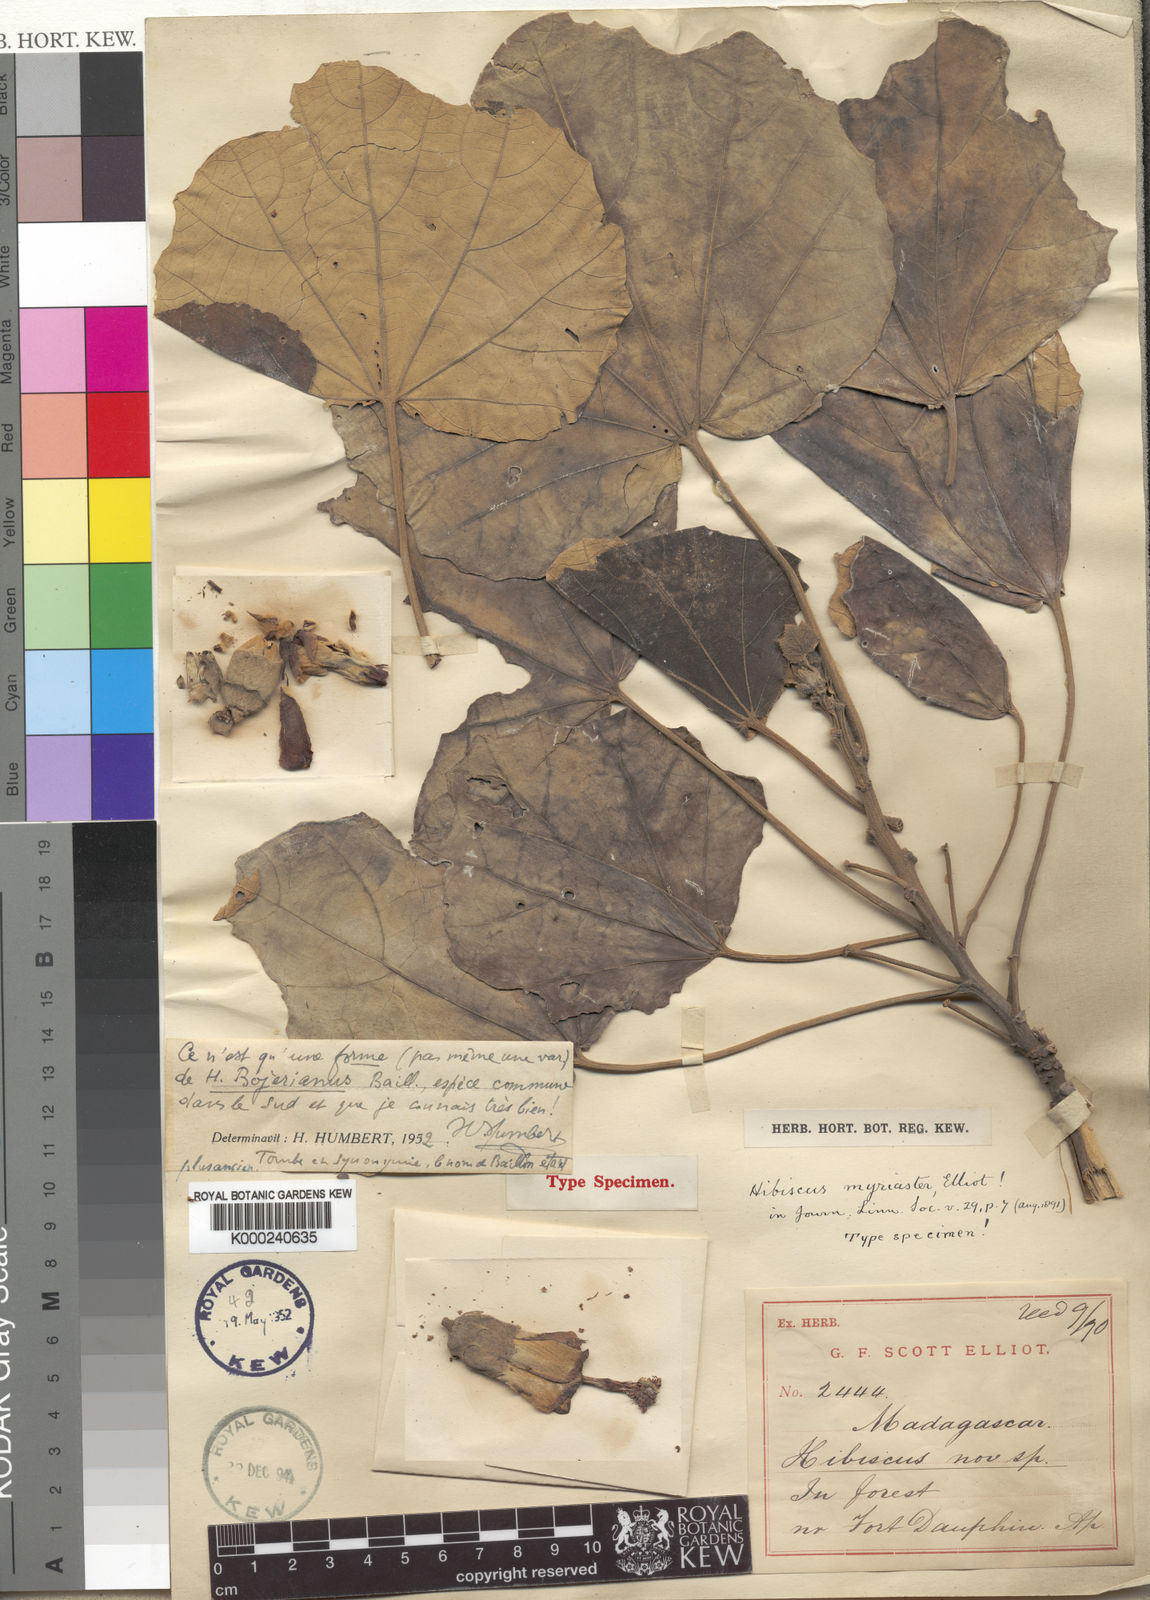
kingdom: Plantae
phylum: Tracheophyta
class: Magnoliopsida
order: Malvales
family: Malvaceae
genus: Hibiscus
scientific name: Hibiscus bojerianus
